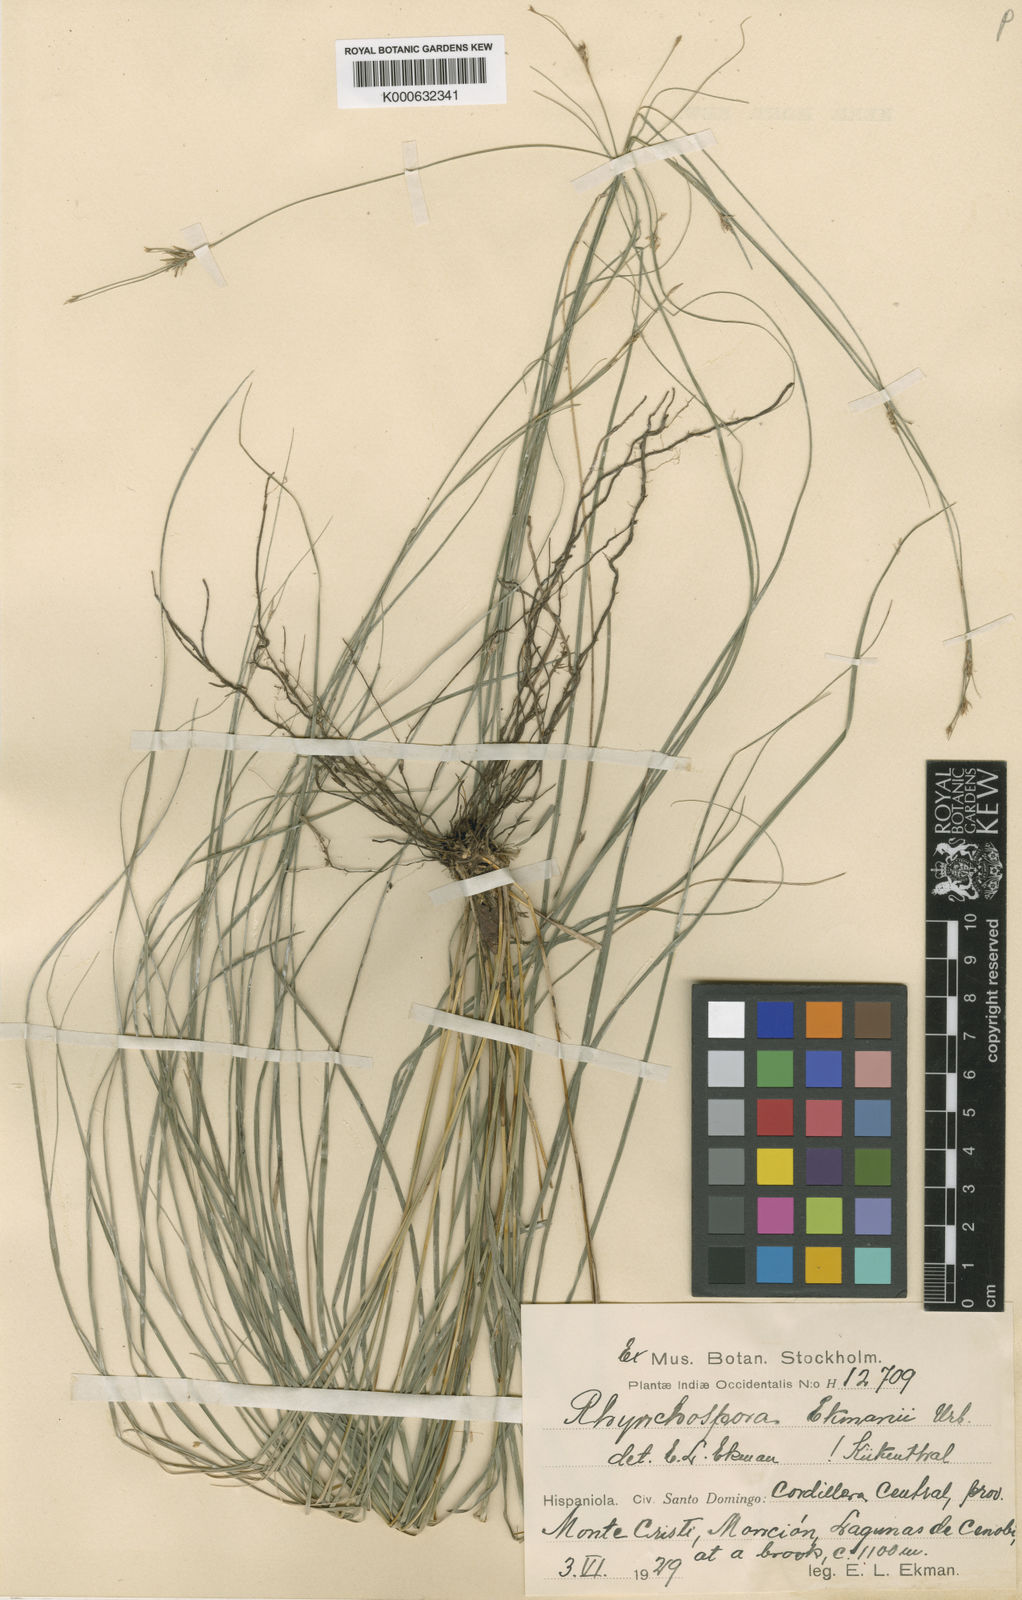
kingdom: Plantae
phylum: Tracheophyta
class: Liliopsida
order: Poales
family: Cyperaceae
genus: Rhynchospora
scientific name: Rhynchospora biflora
